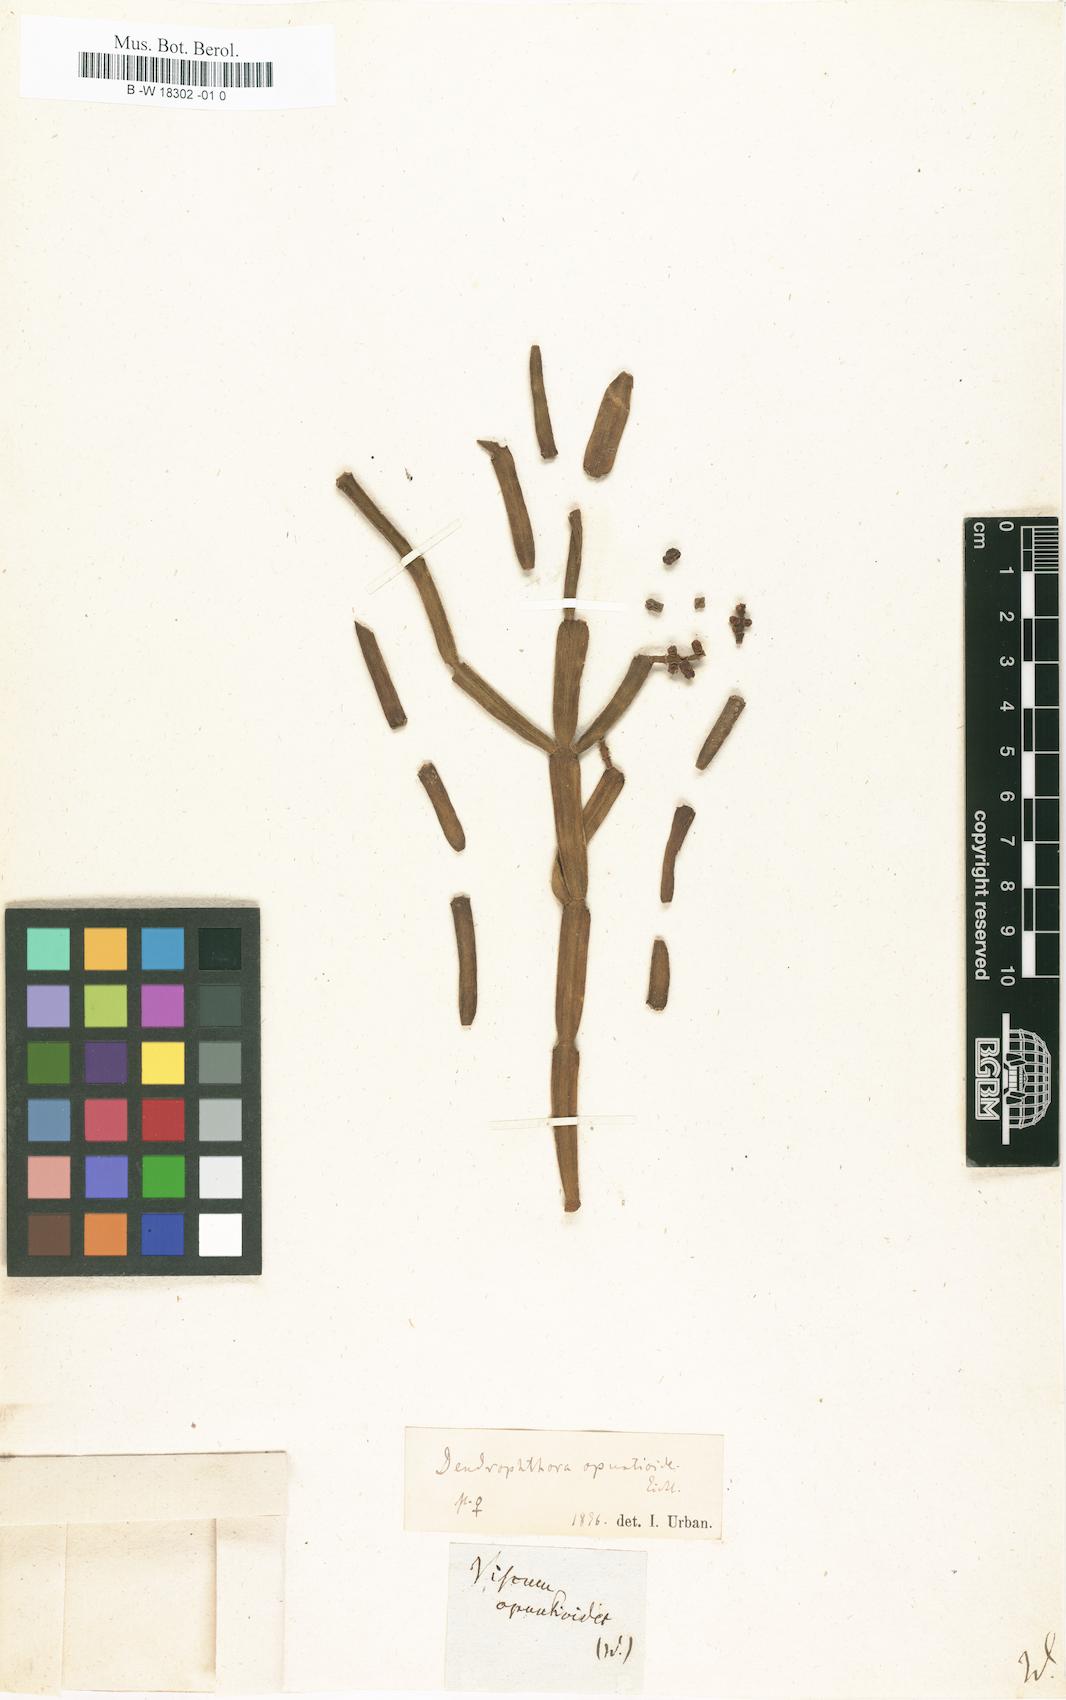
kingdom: Plantae
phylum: Tracheophyta
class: Magnoliopsida
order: Santalales
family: Viscaceae
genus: Dendrophthora
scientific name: Dendrophthora opuntioides
